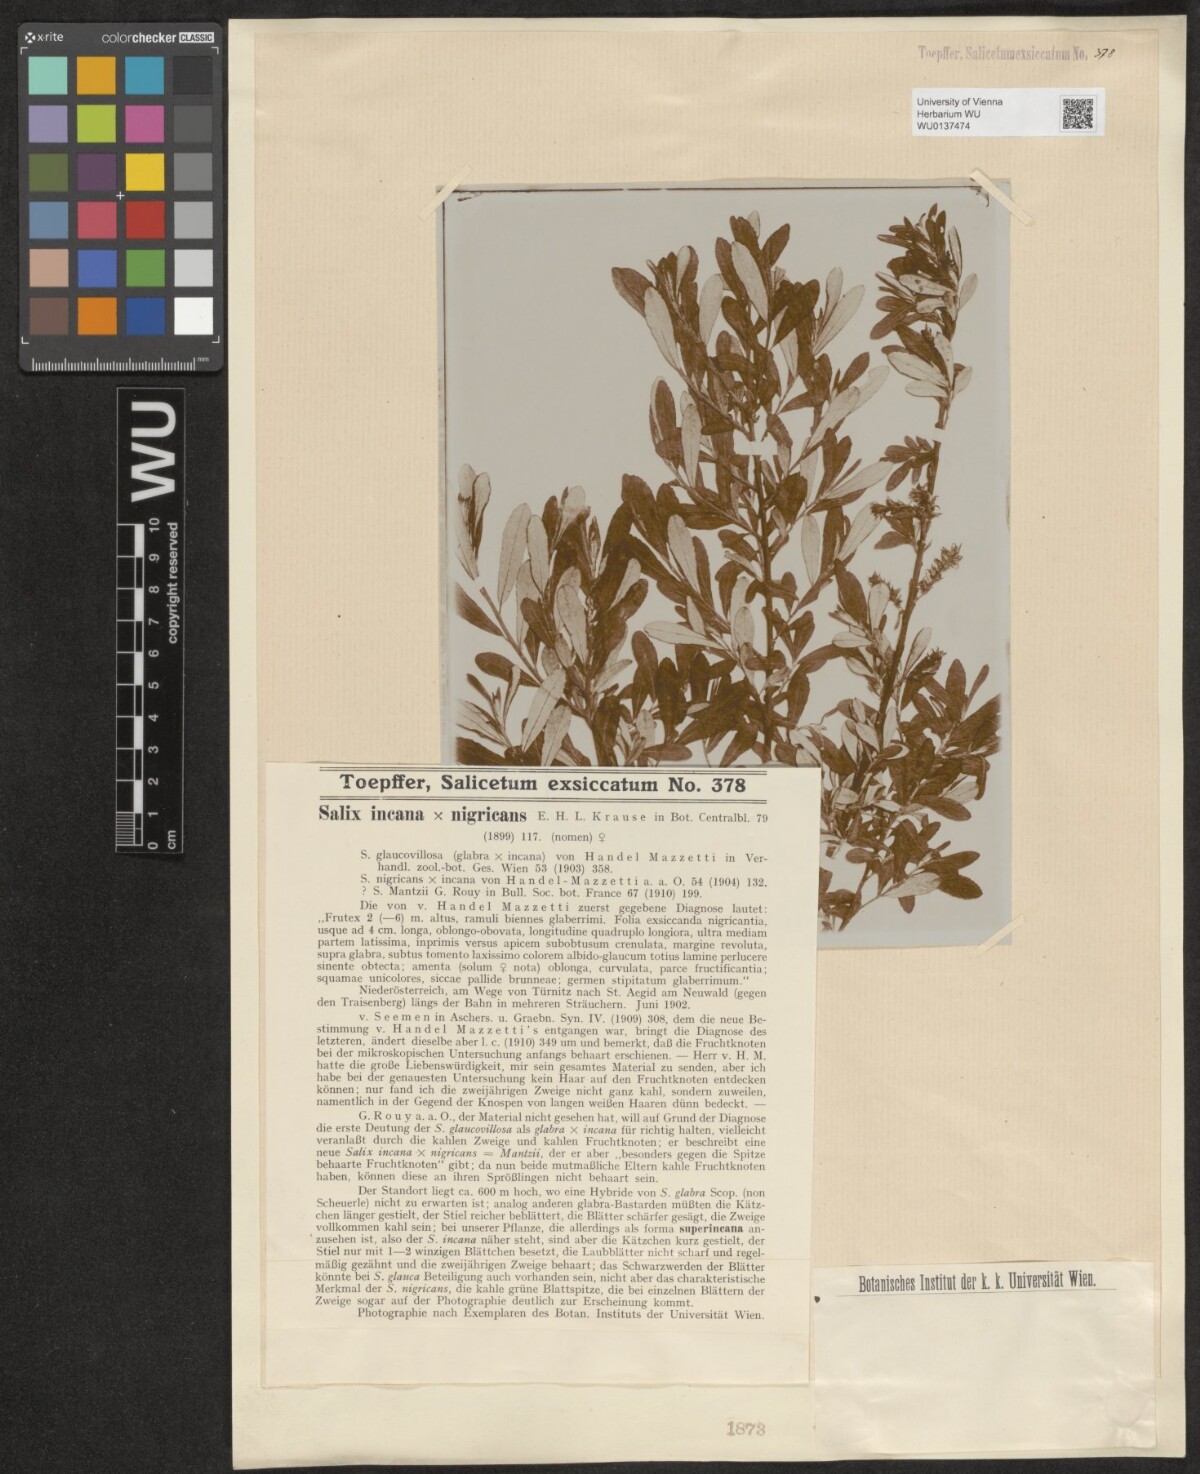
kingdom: Plantae
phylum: Tracheophyta
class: Magnoliopsida
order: Malpighiales
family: Salicaceae
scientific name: Salicaceae
